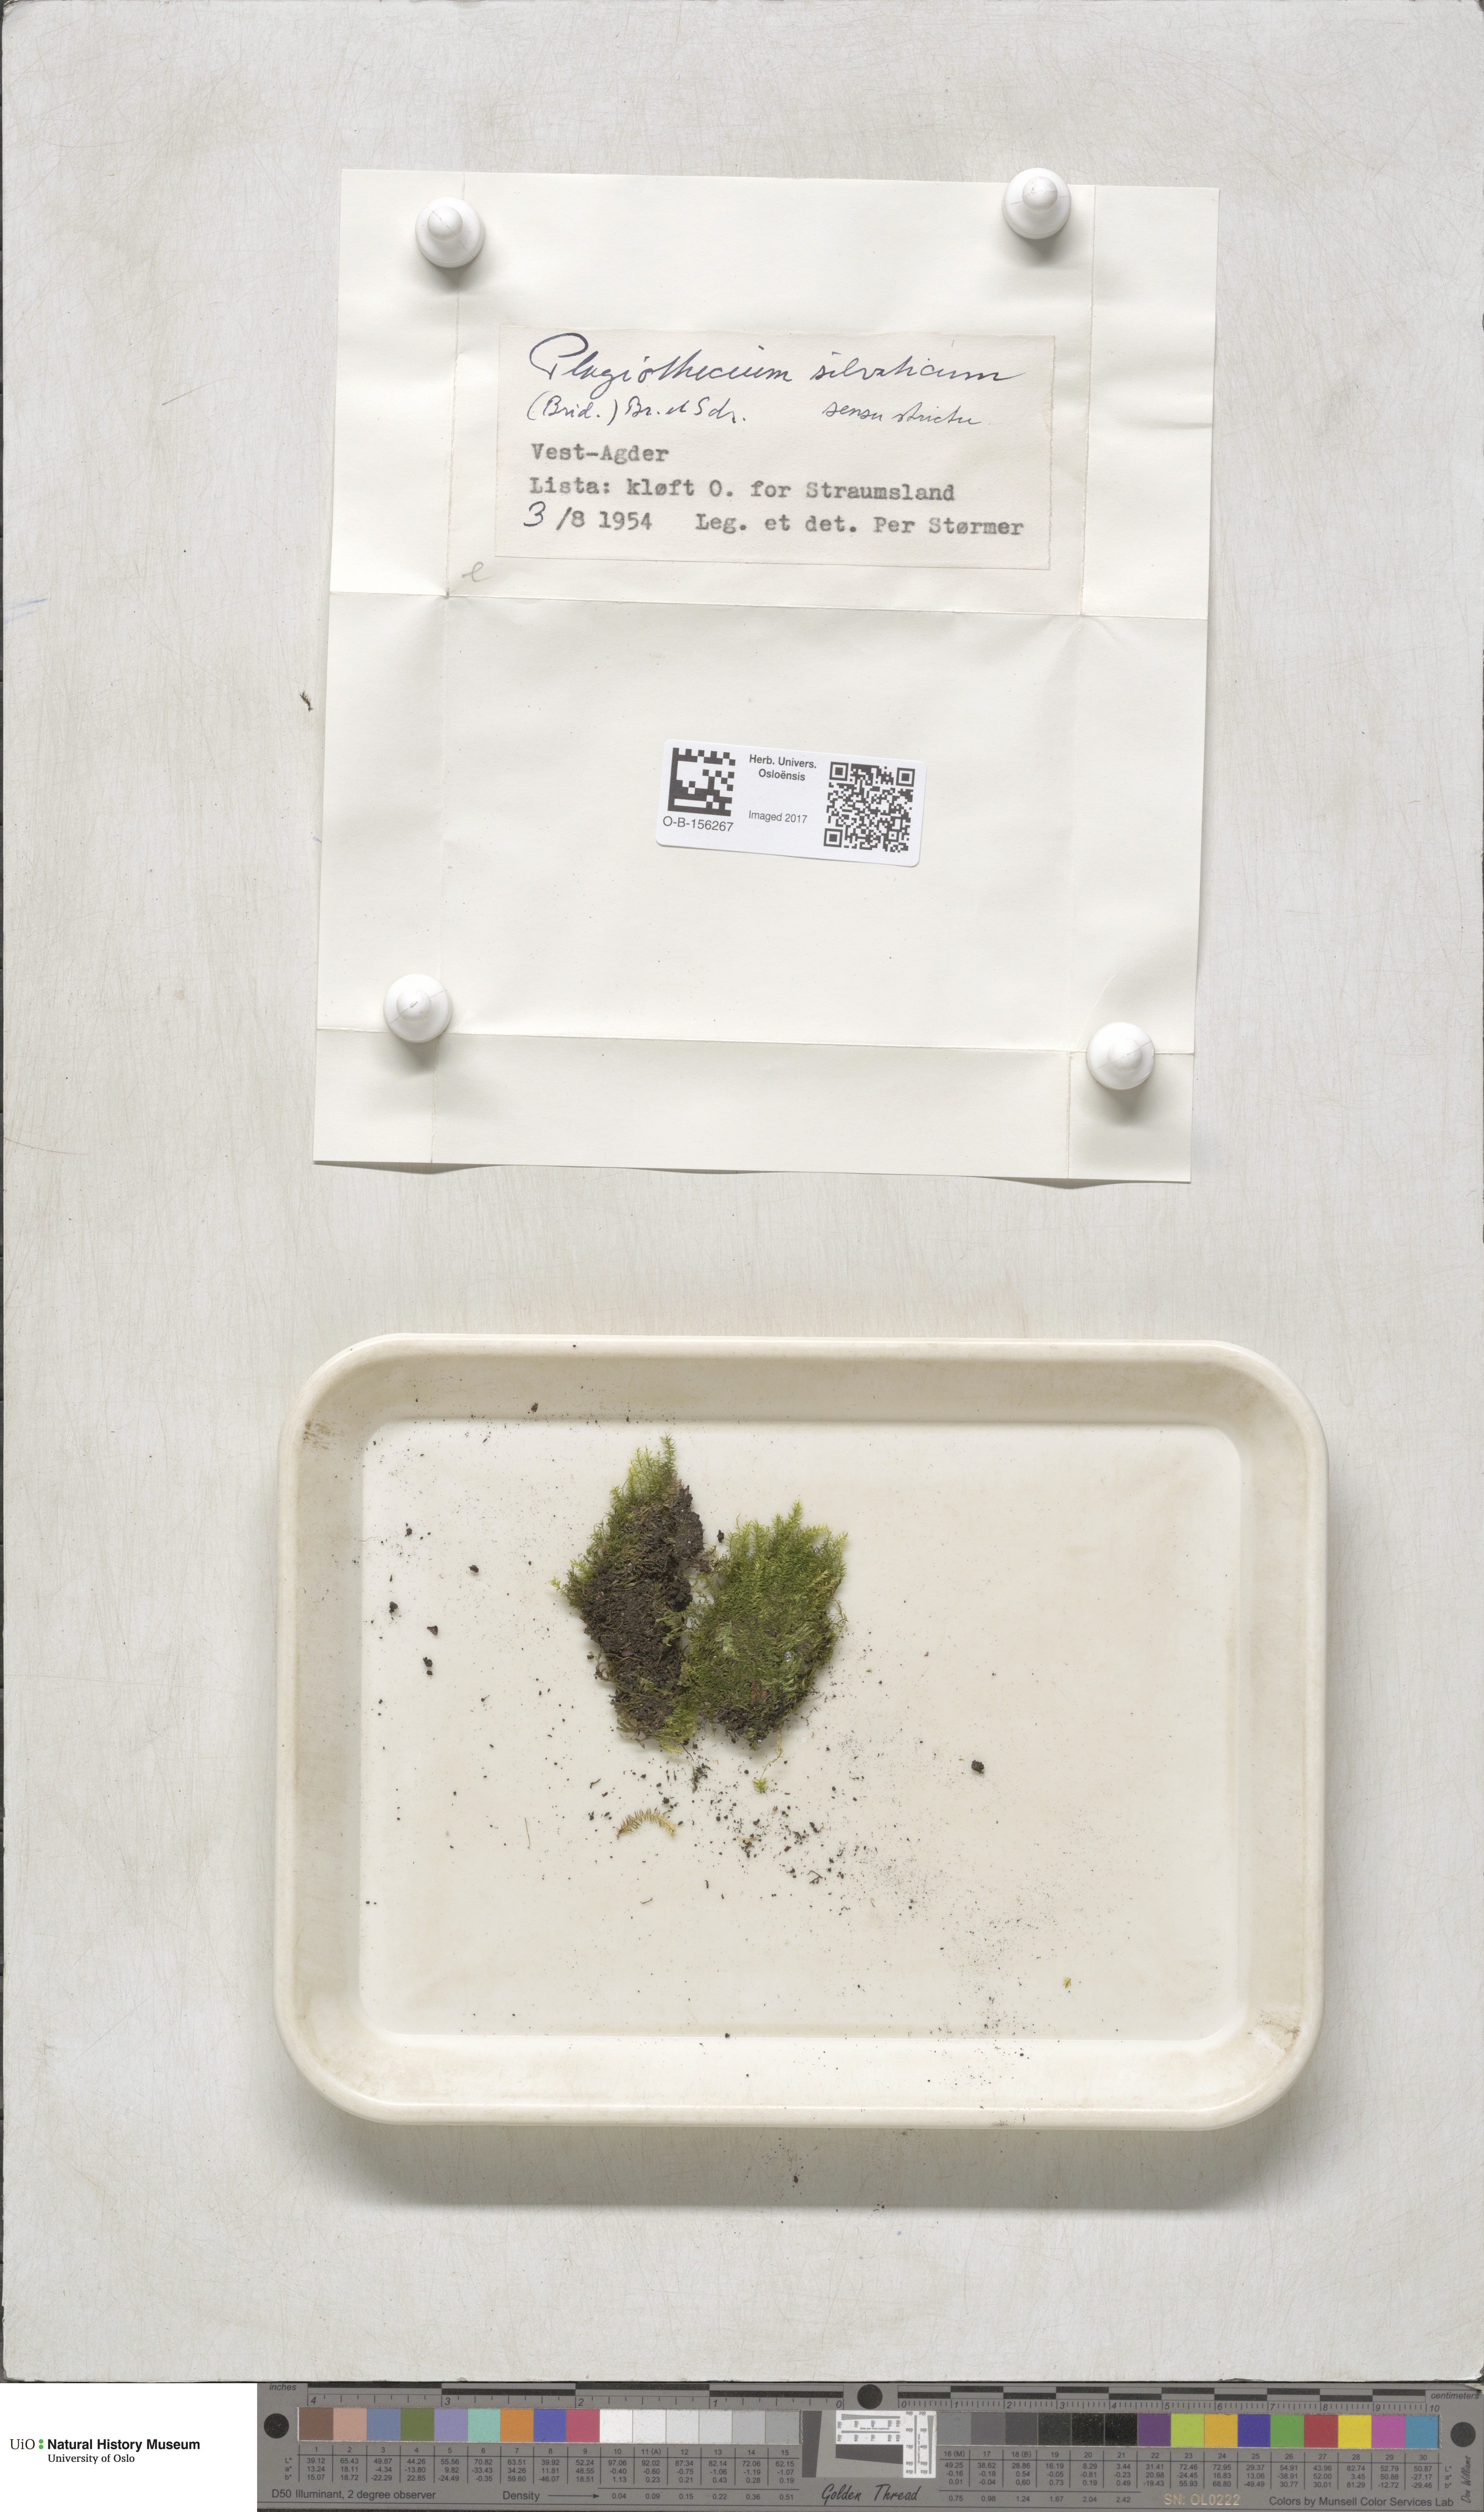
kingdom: Plantae
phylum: Bryophyta
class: Bryopsida
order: Hypnales
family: Plagiotheciaceae
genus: Plagiothecium
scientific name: Plagiothecium nemorale
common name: Woodsy silk-moss
